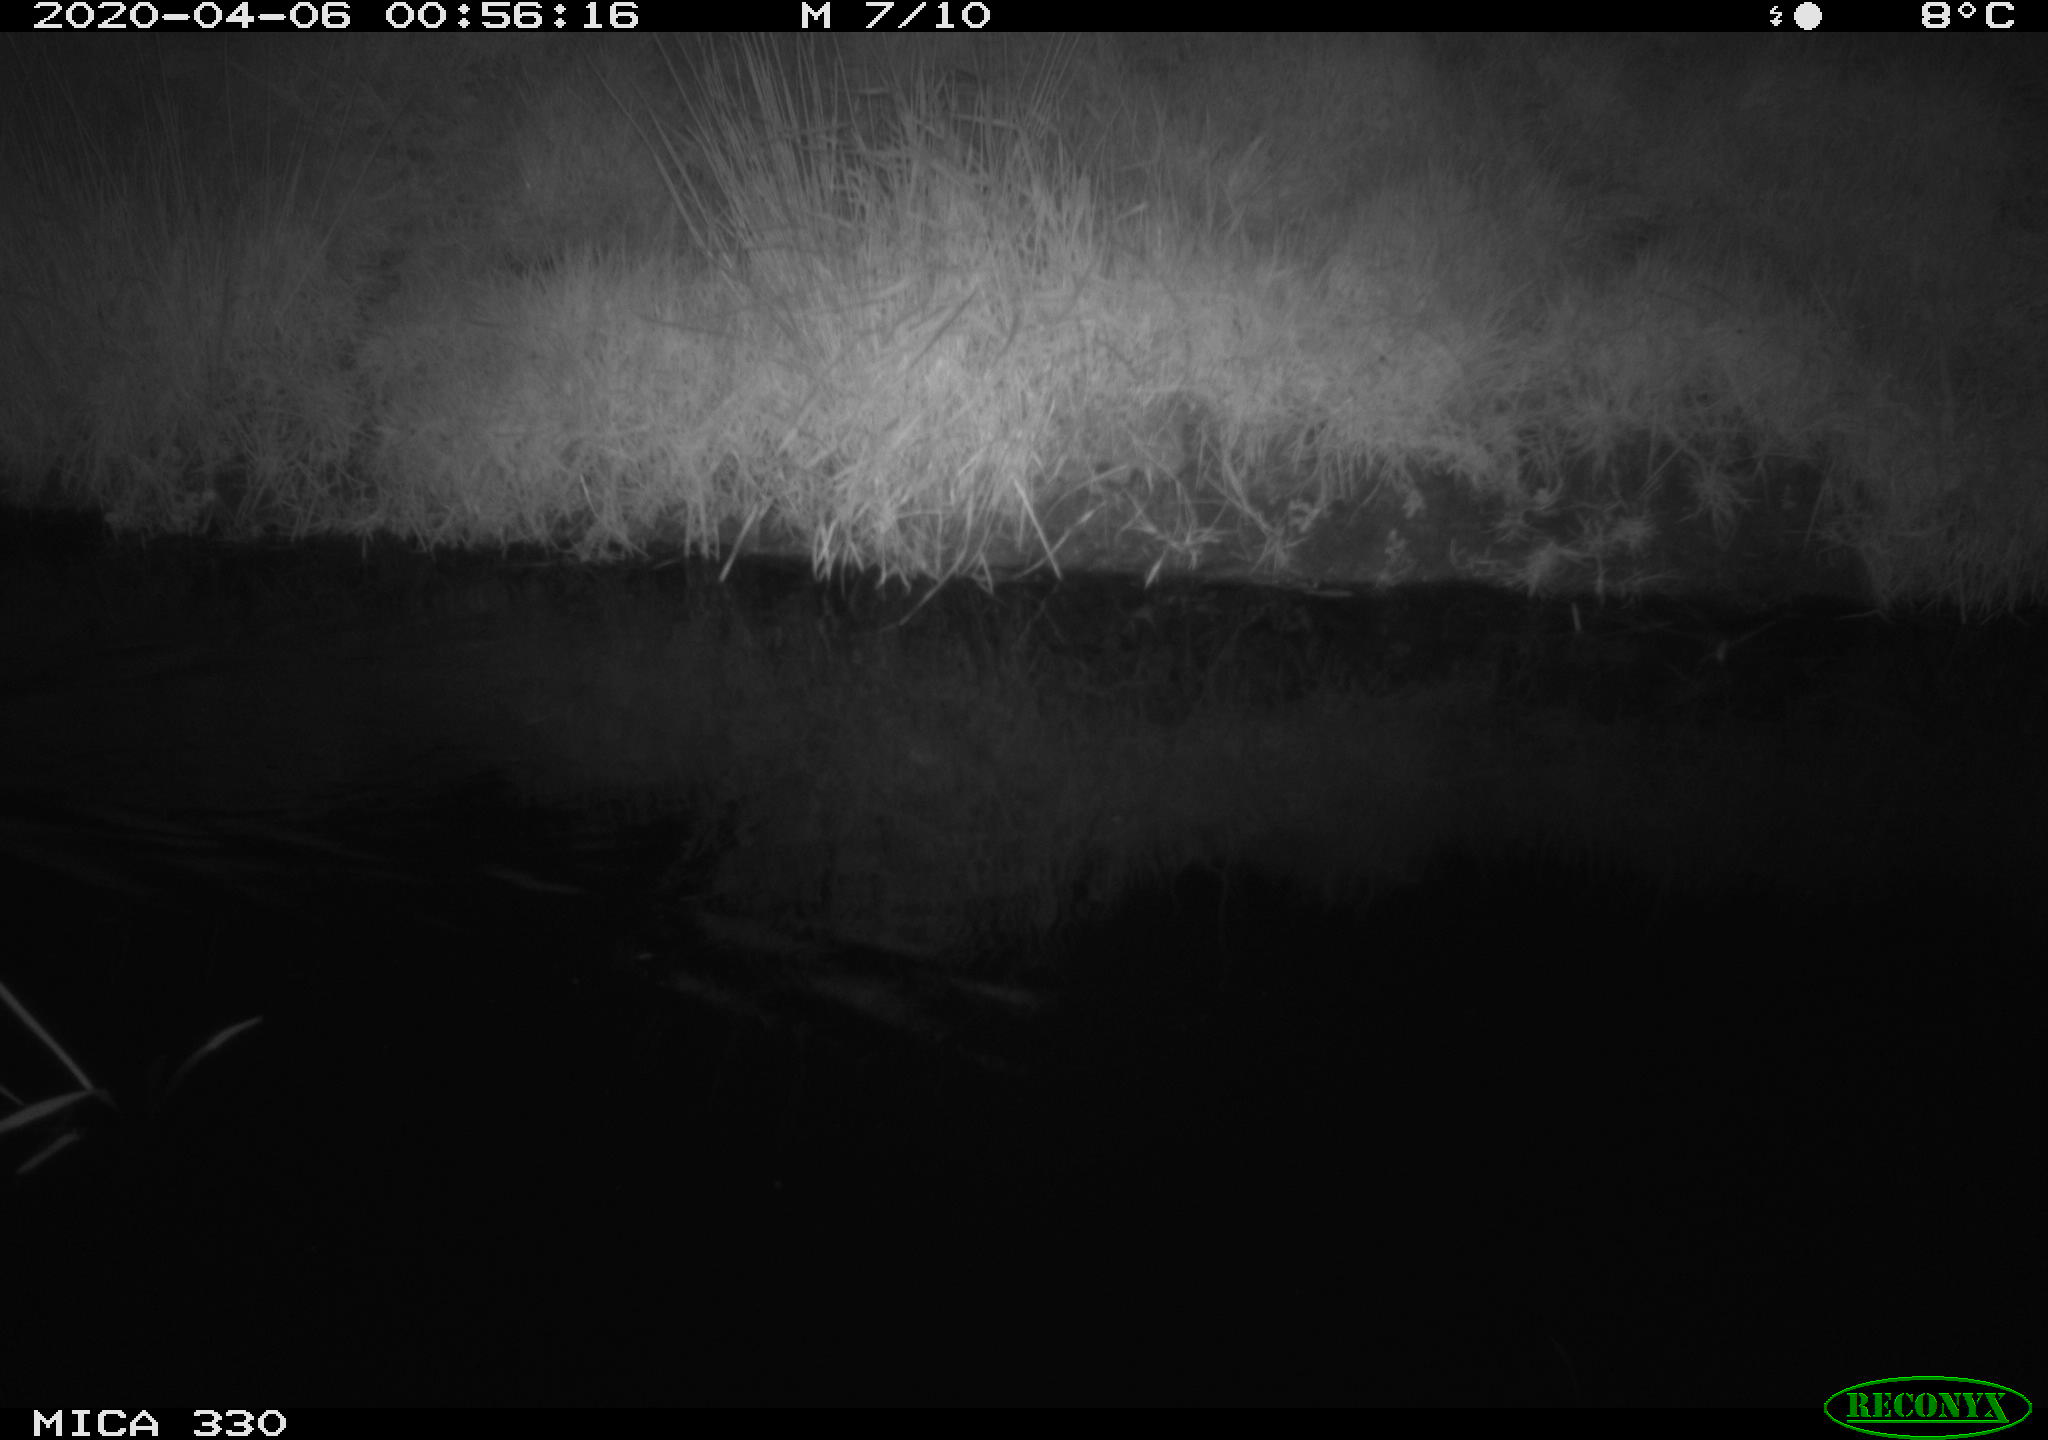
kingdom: Animalia
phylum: Chordata
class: Aves
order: Anseriformes
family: Anatidae
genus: Anas
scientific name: Anas platyrhynchos
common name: Mallard
